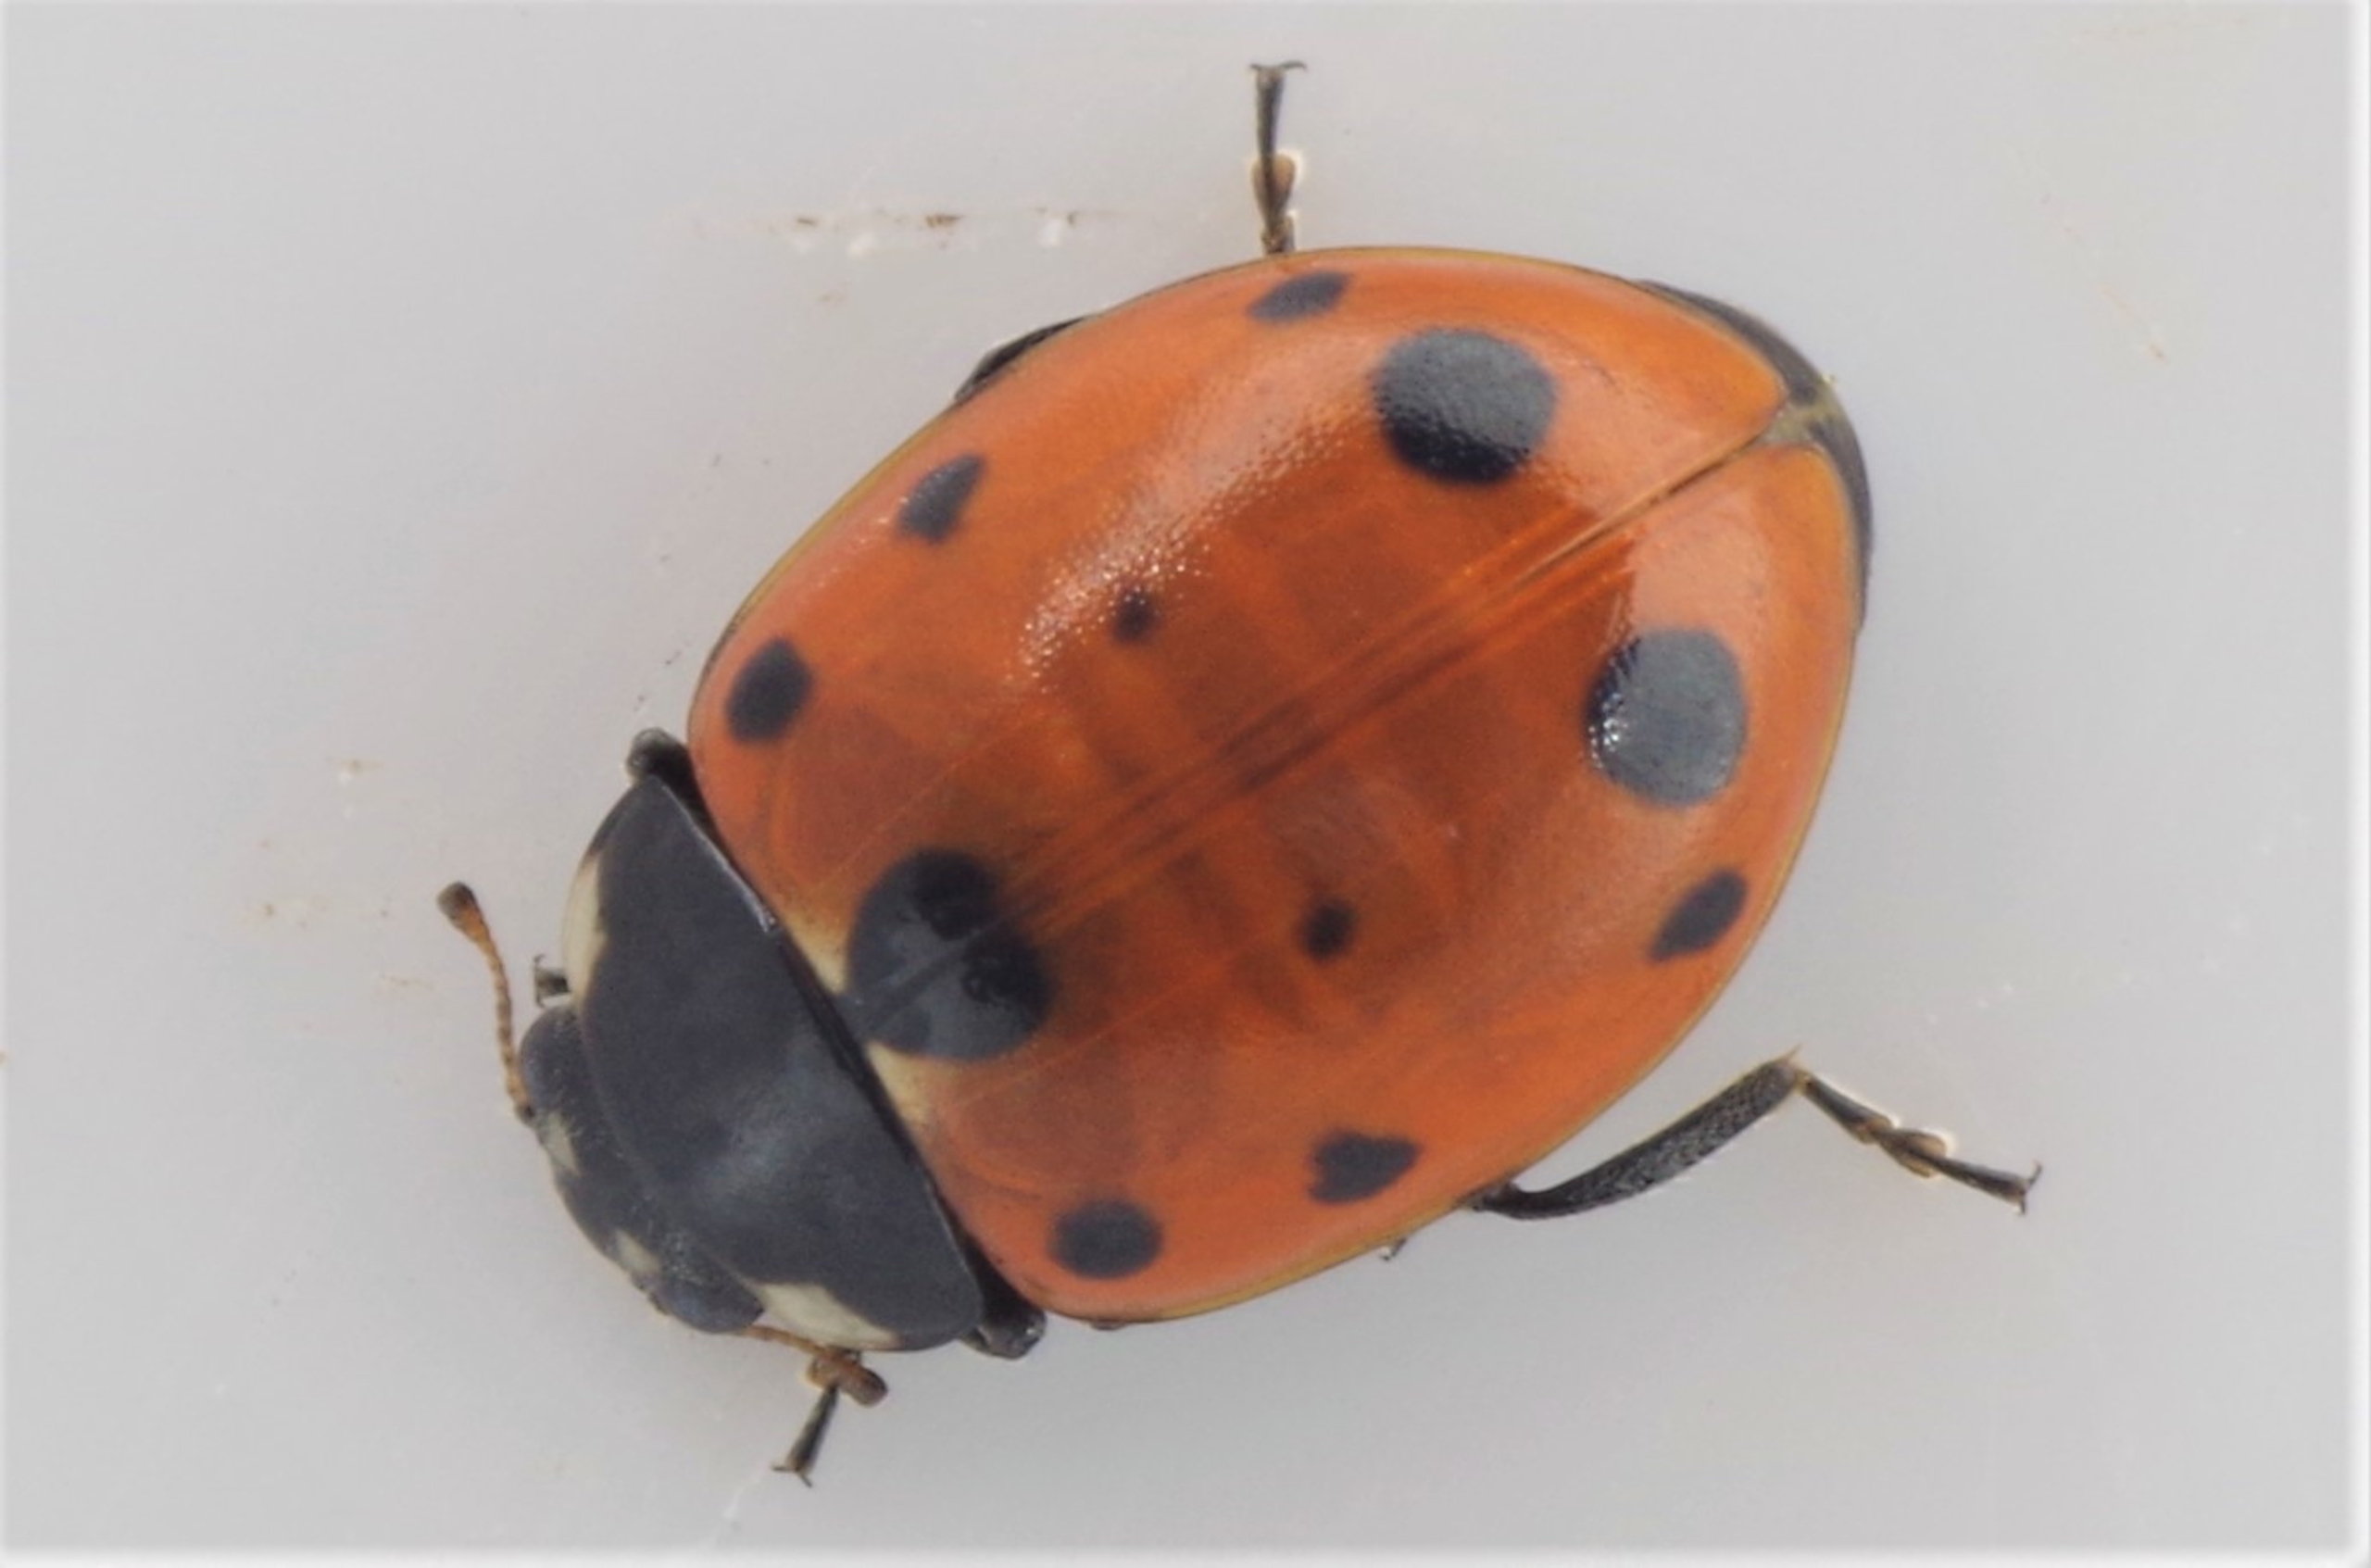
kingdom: Animalia
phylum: Arthropoda
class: Insecta
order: Coleoptera
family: Coccinellidae
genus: Coccinella
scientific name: Coccinella undecimpunctata
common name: Elleveplettet mariehøne
